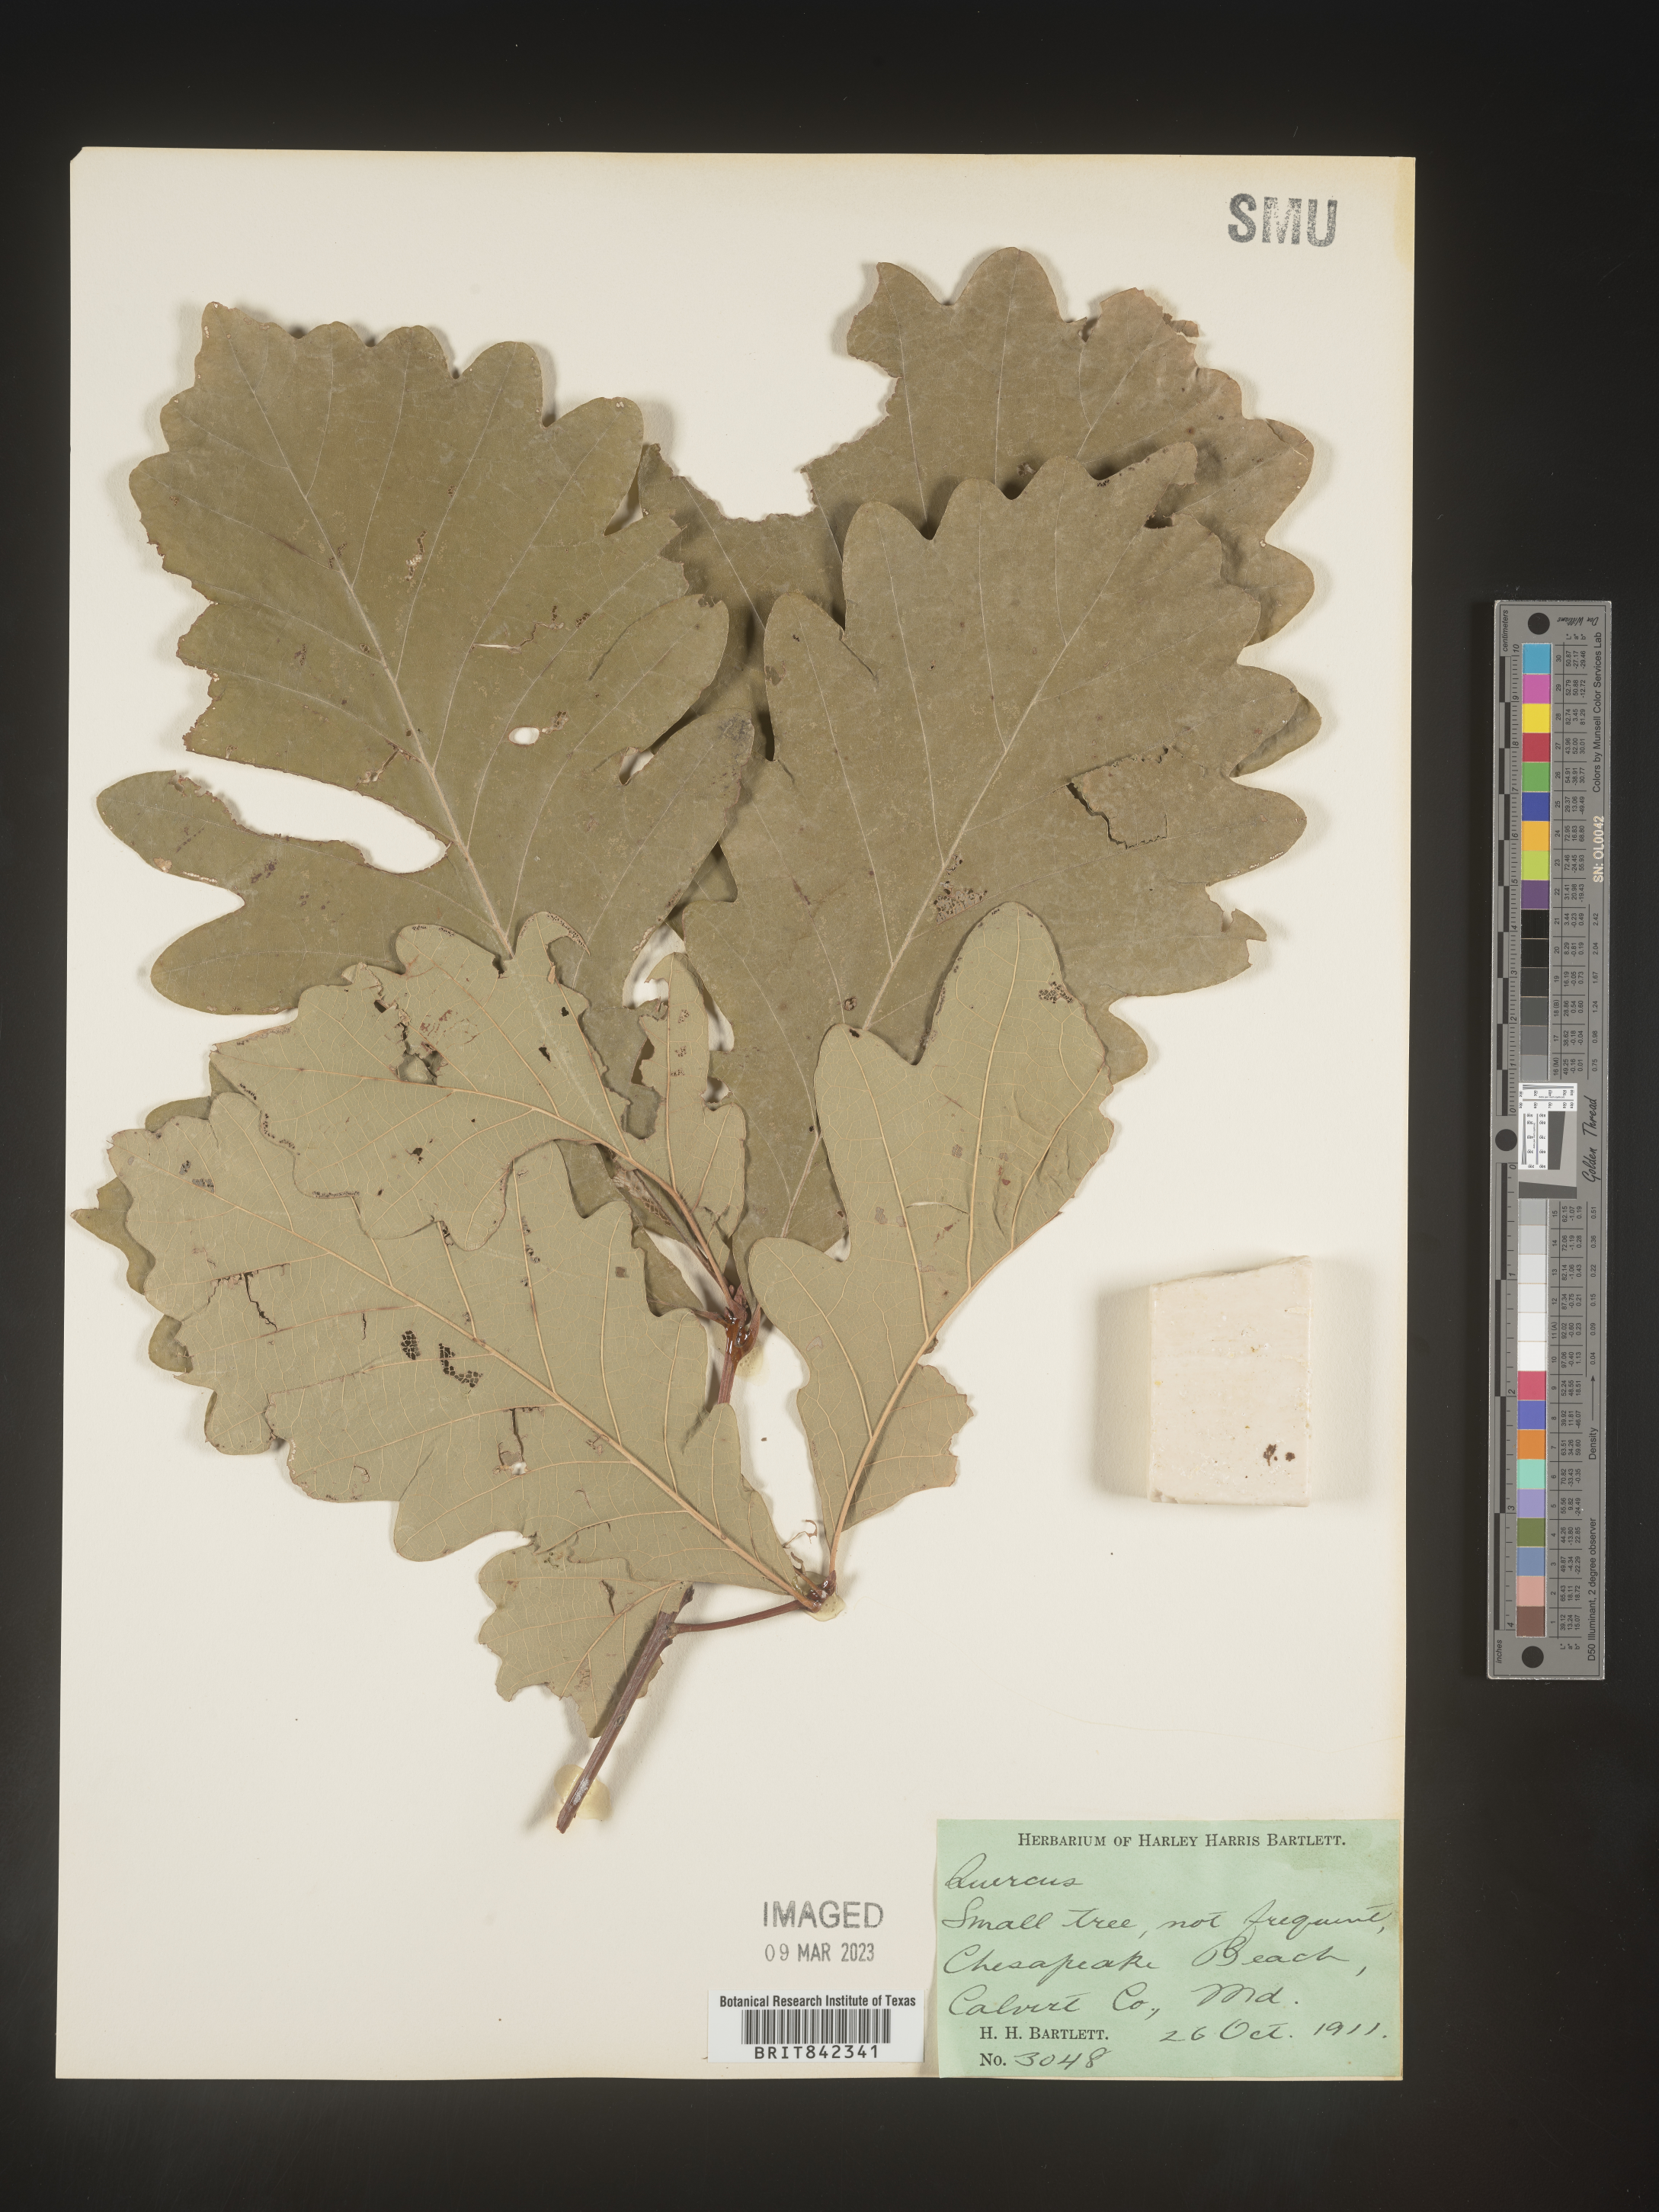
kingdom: Plantae
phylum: Tracheophyta
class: Magnoliopsida
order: Fagales
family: Fagaceae
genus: Quercus
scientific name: Quercus
